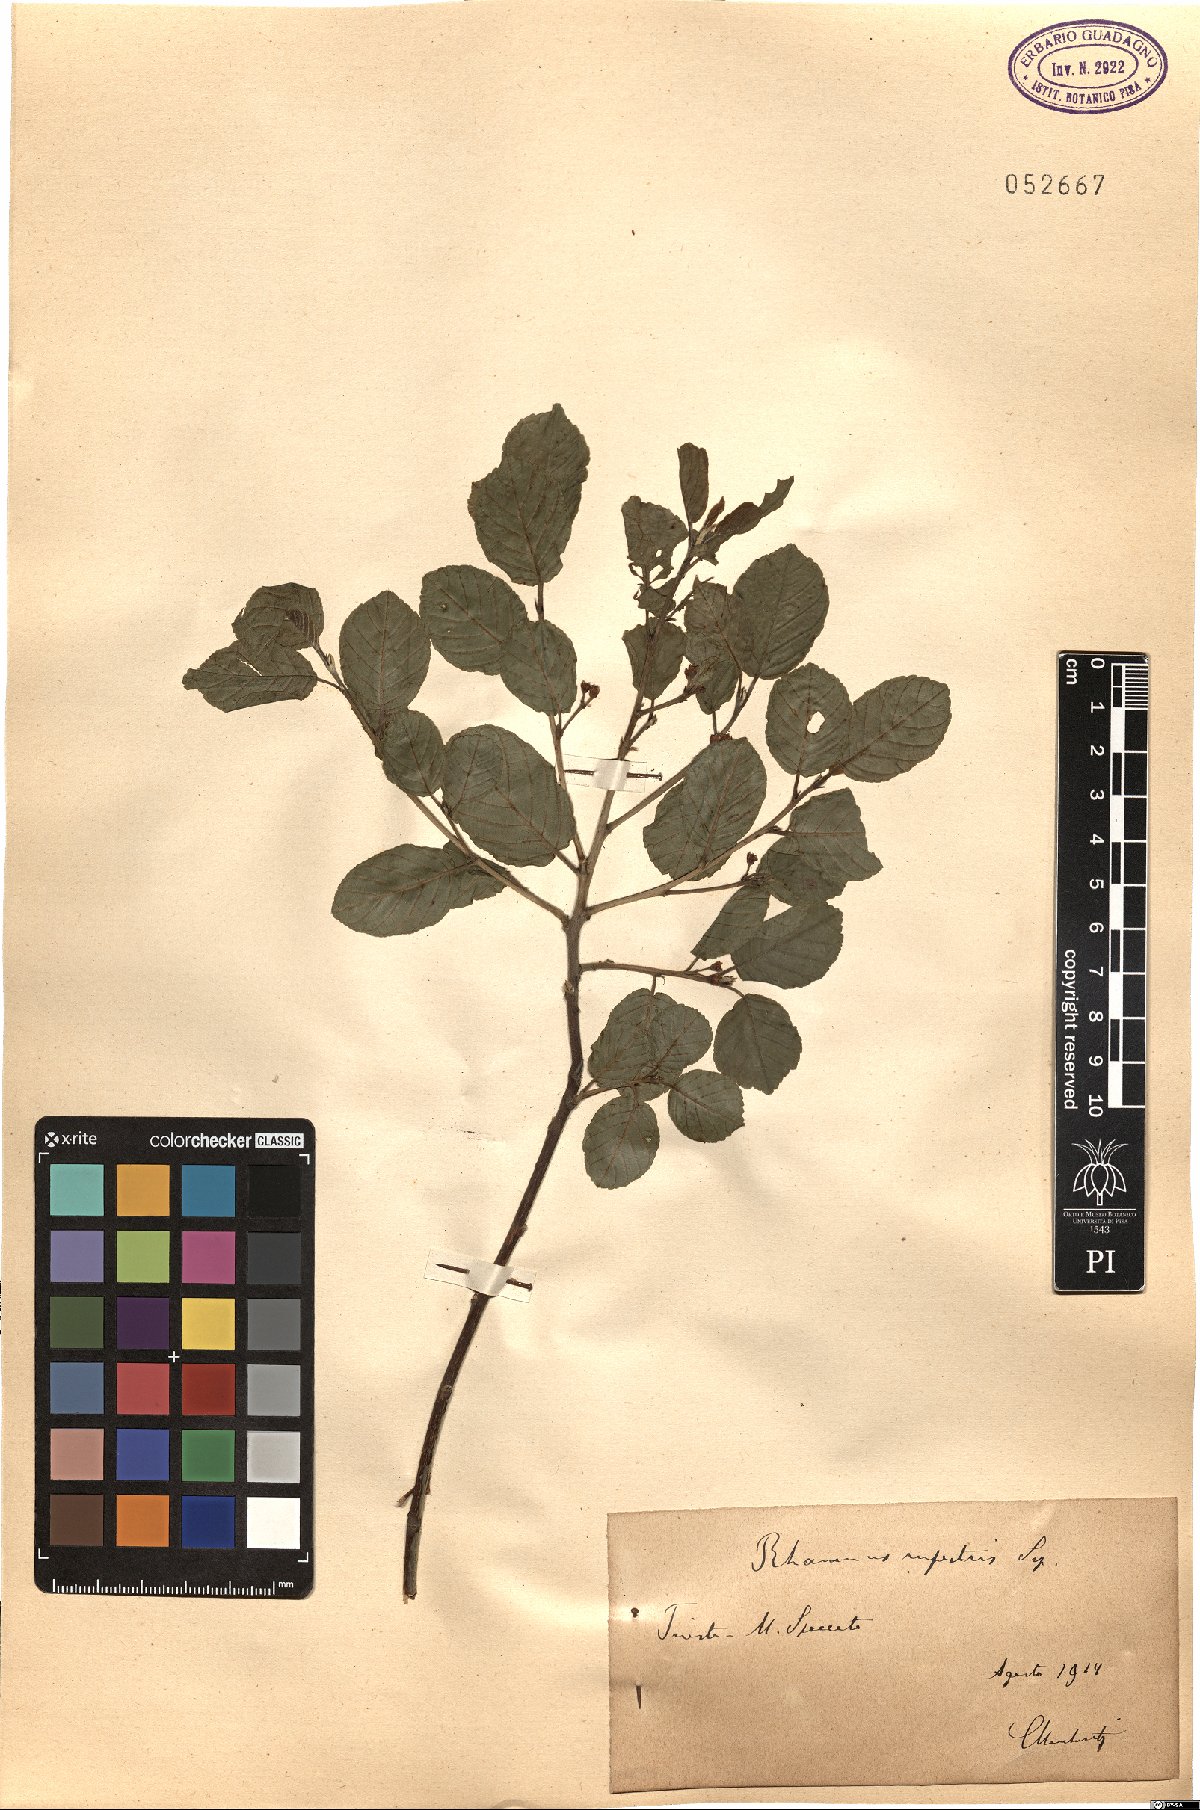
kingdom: Plantae
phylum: Tracheophyta
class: Magnoliopsida
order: Rosales
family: Rhamnaceae
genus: Frangula
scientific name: Frangula rupestris
